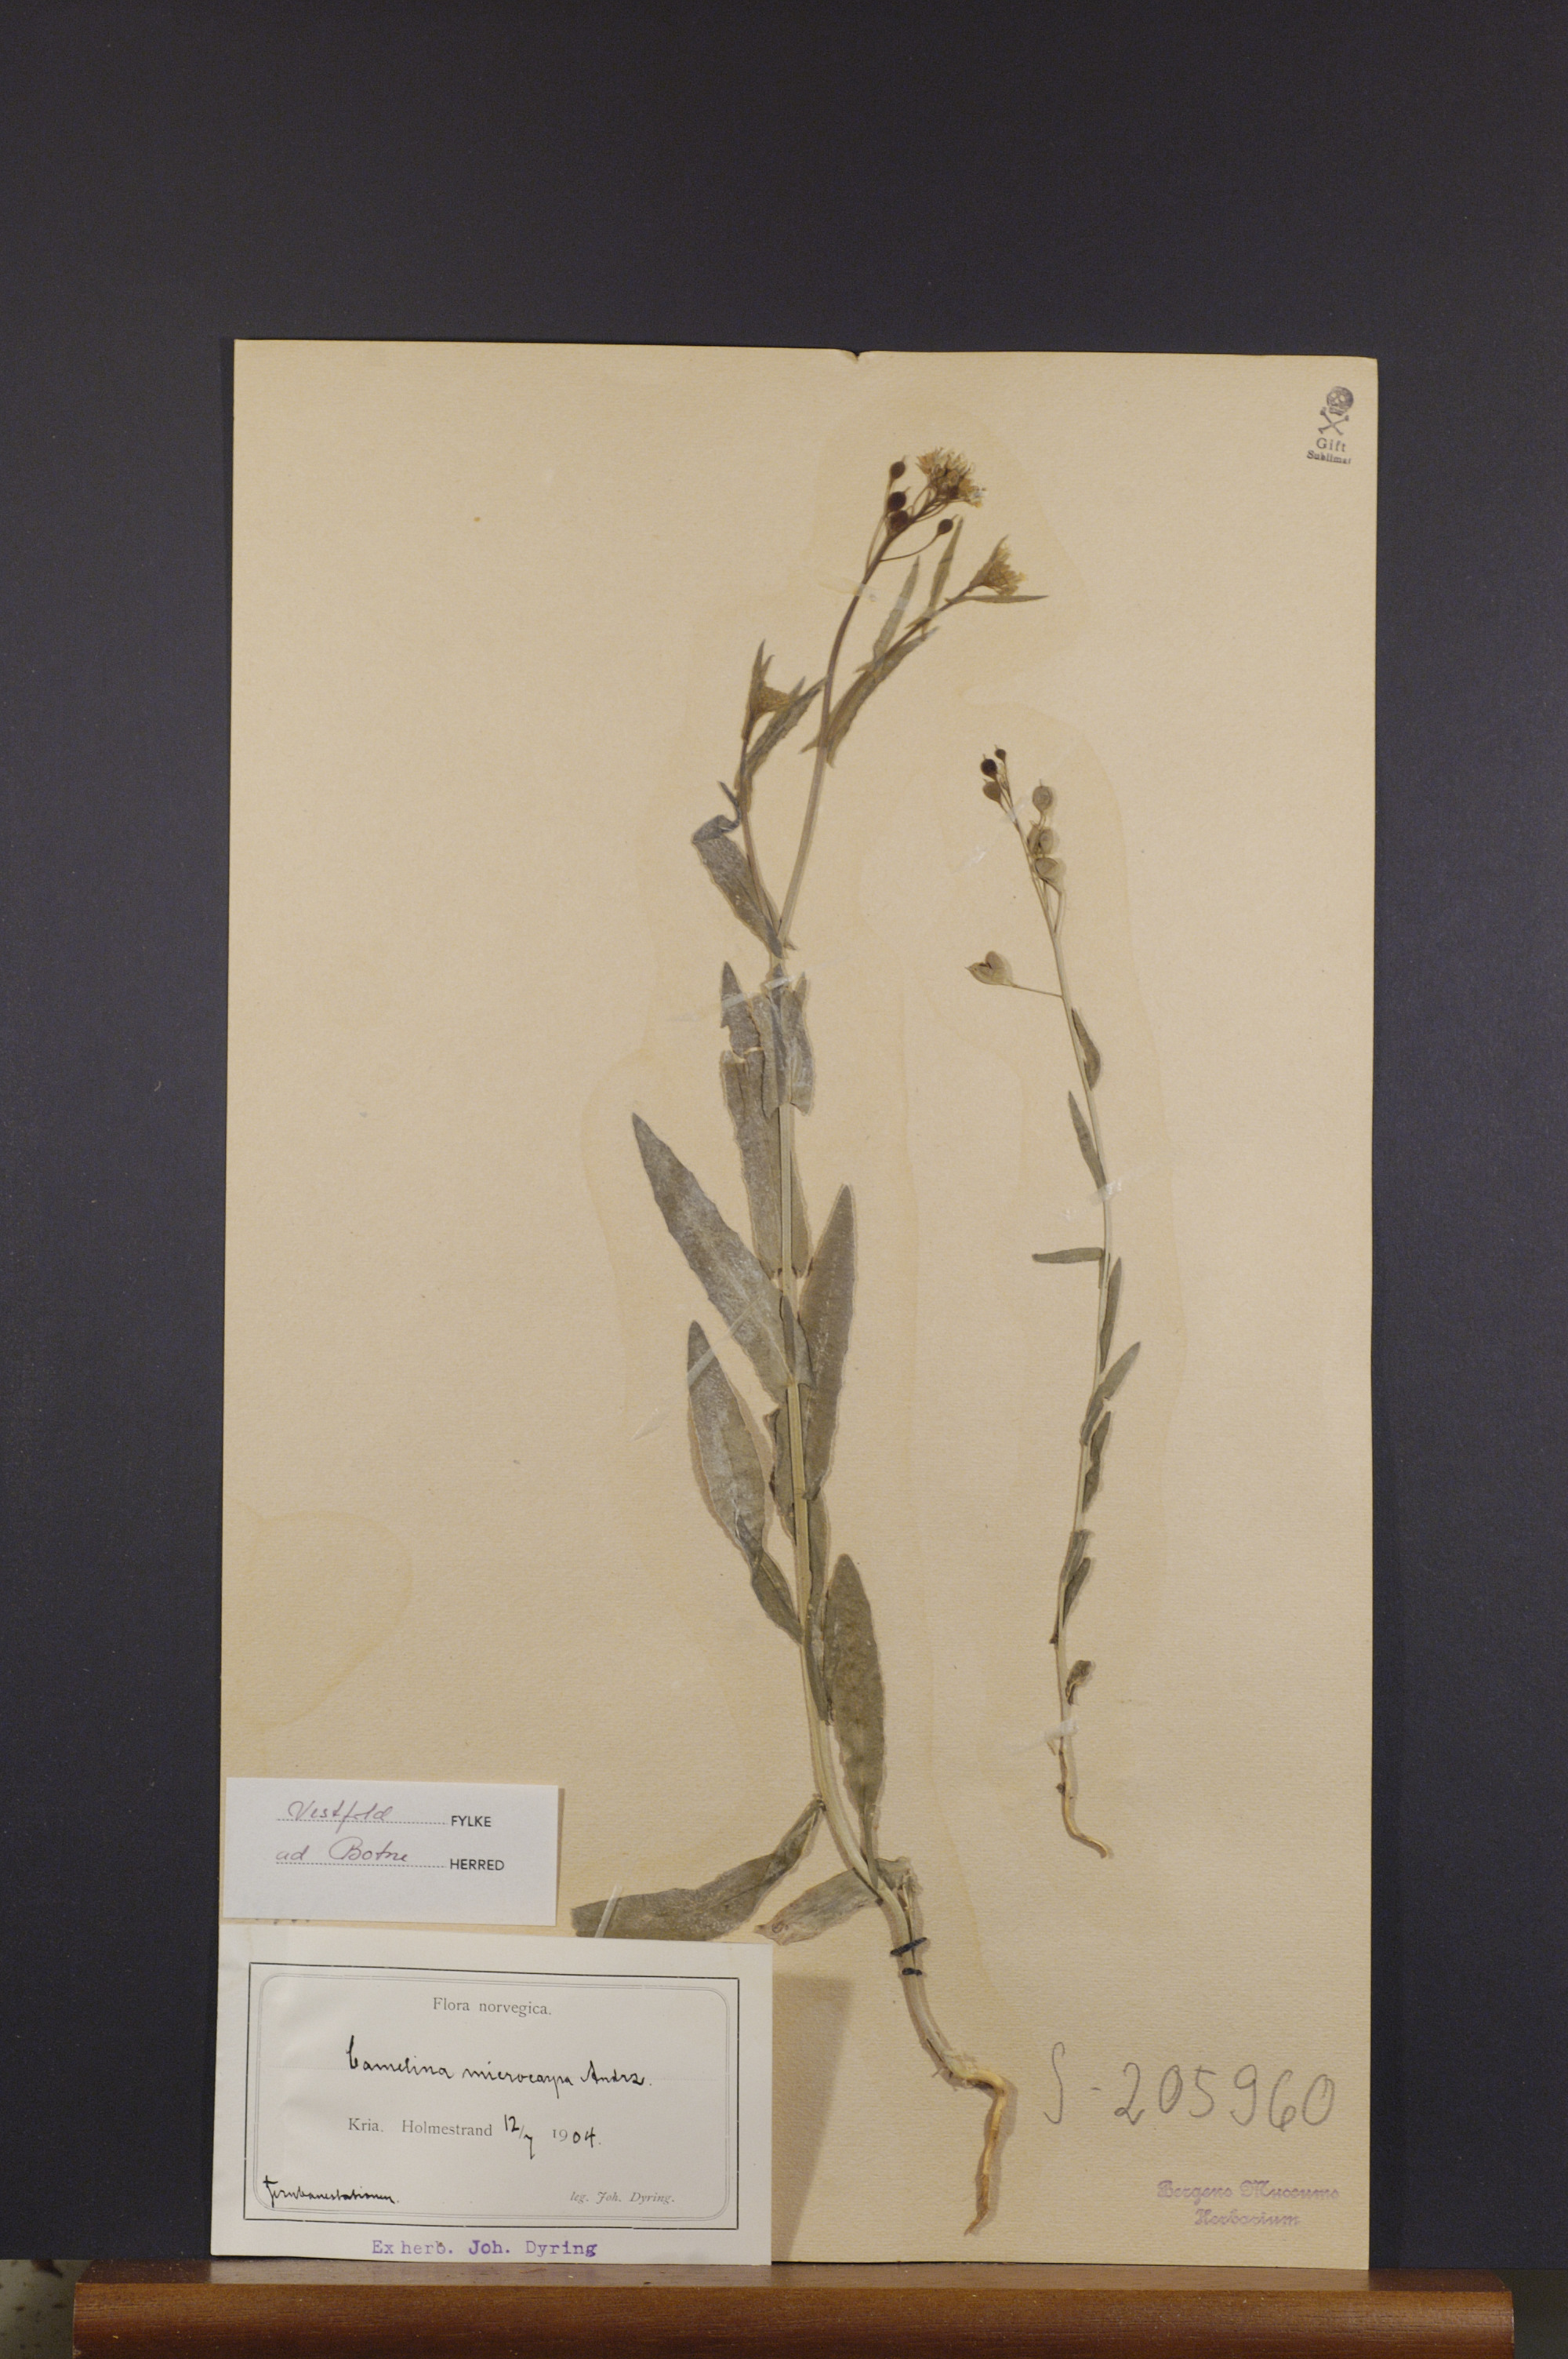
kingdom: Plantae
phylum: Tracheophyta
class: Magnoliopsida
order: Brassicales
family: Brassicaceae
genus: Camelina
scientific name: Camelina sativa
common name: Gold-of-pleasure
